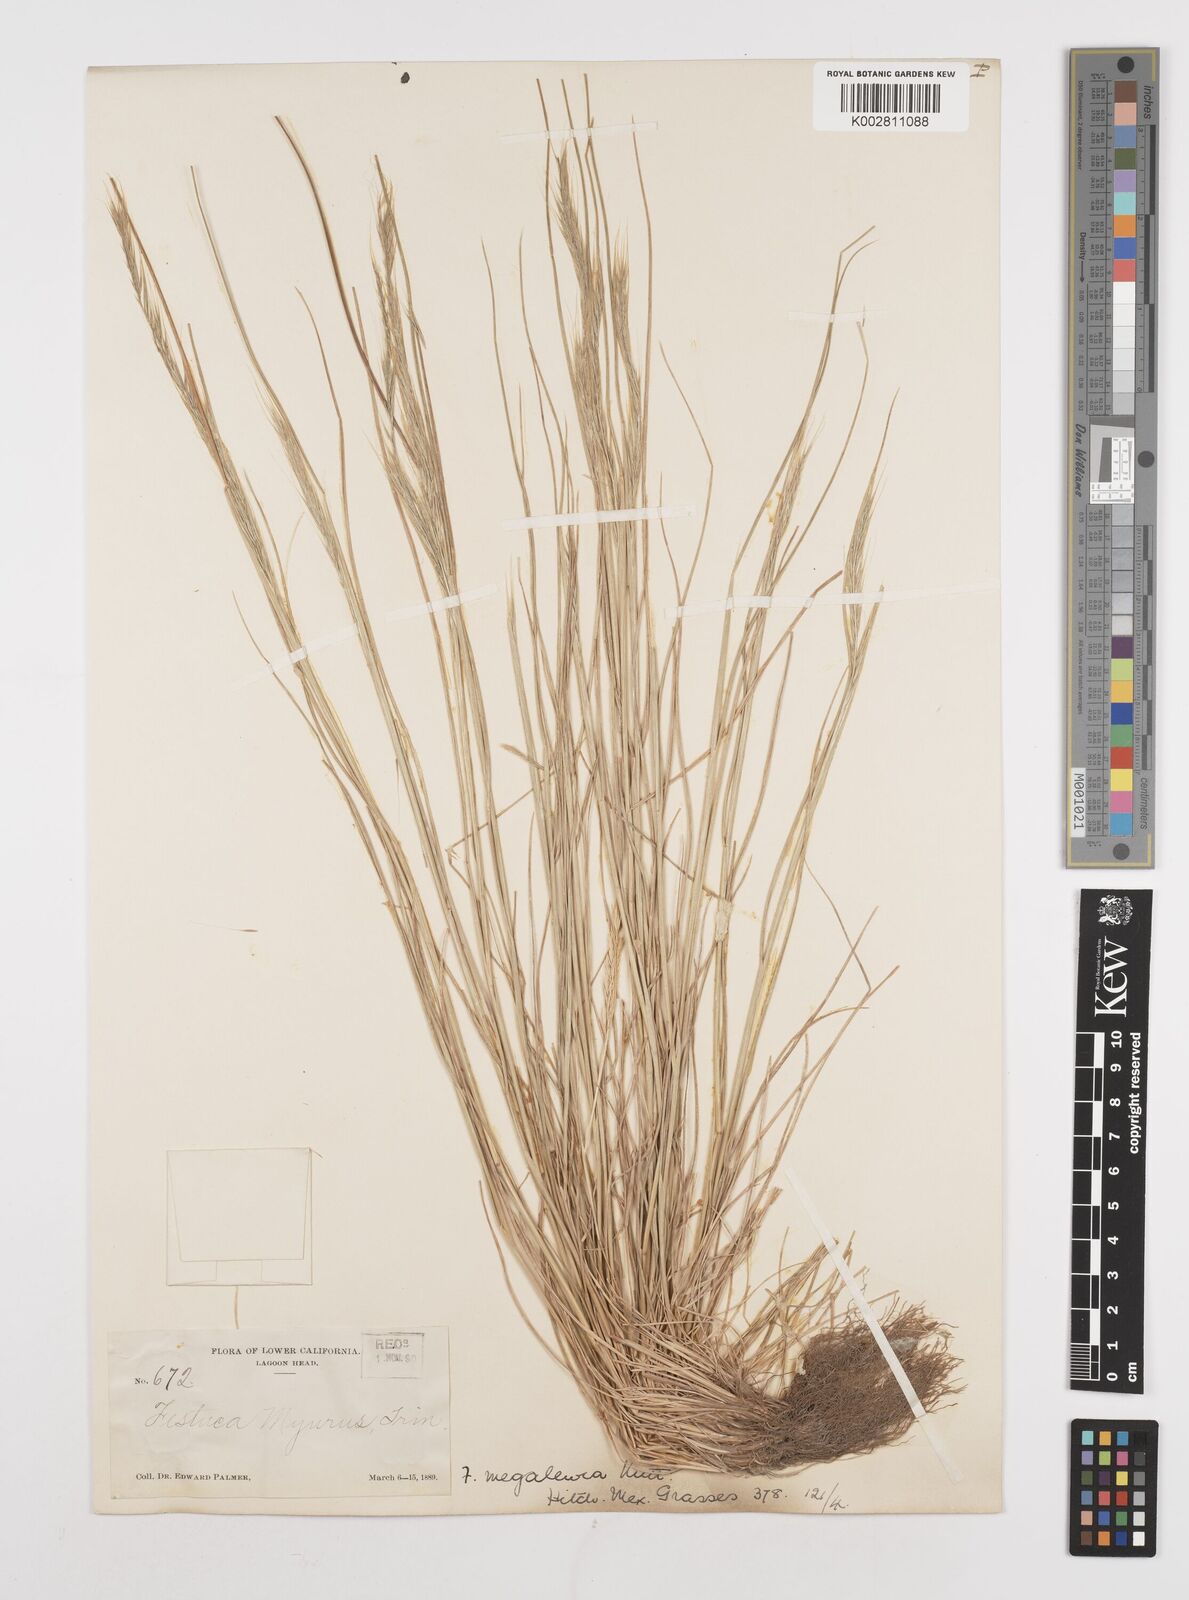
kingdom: Plantae
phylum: Tracheophyta
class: Liliopsida
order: Poales
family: Poaceae
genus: Festuca
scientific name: Festuca myuros
